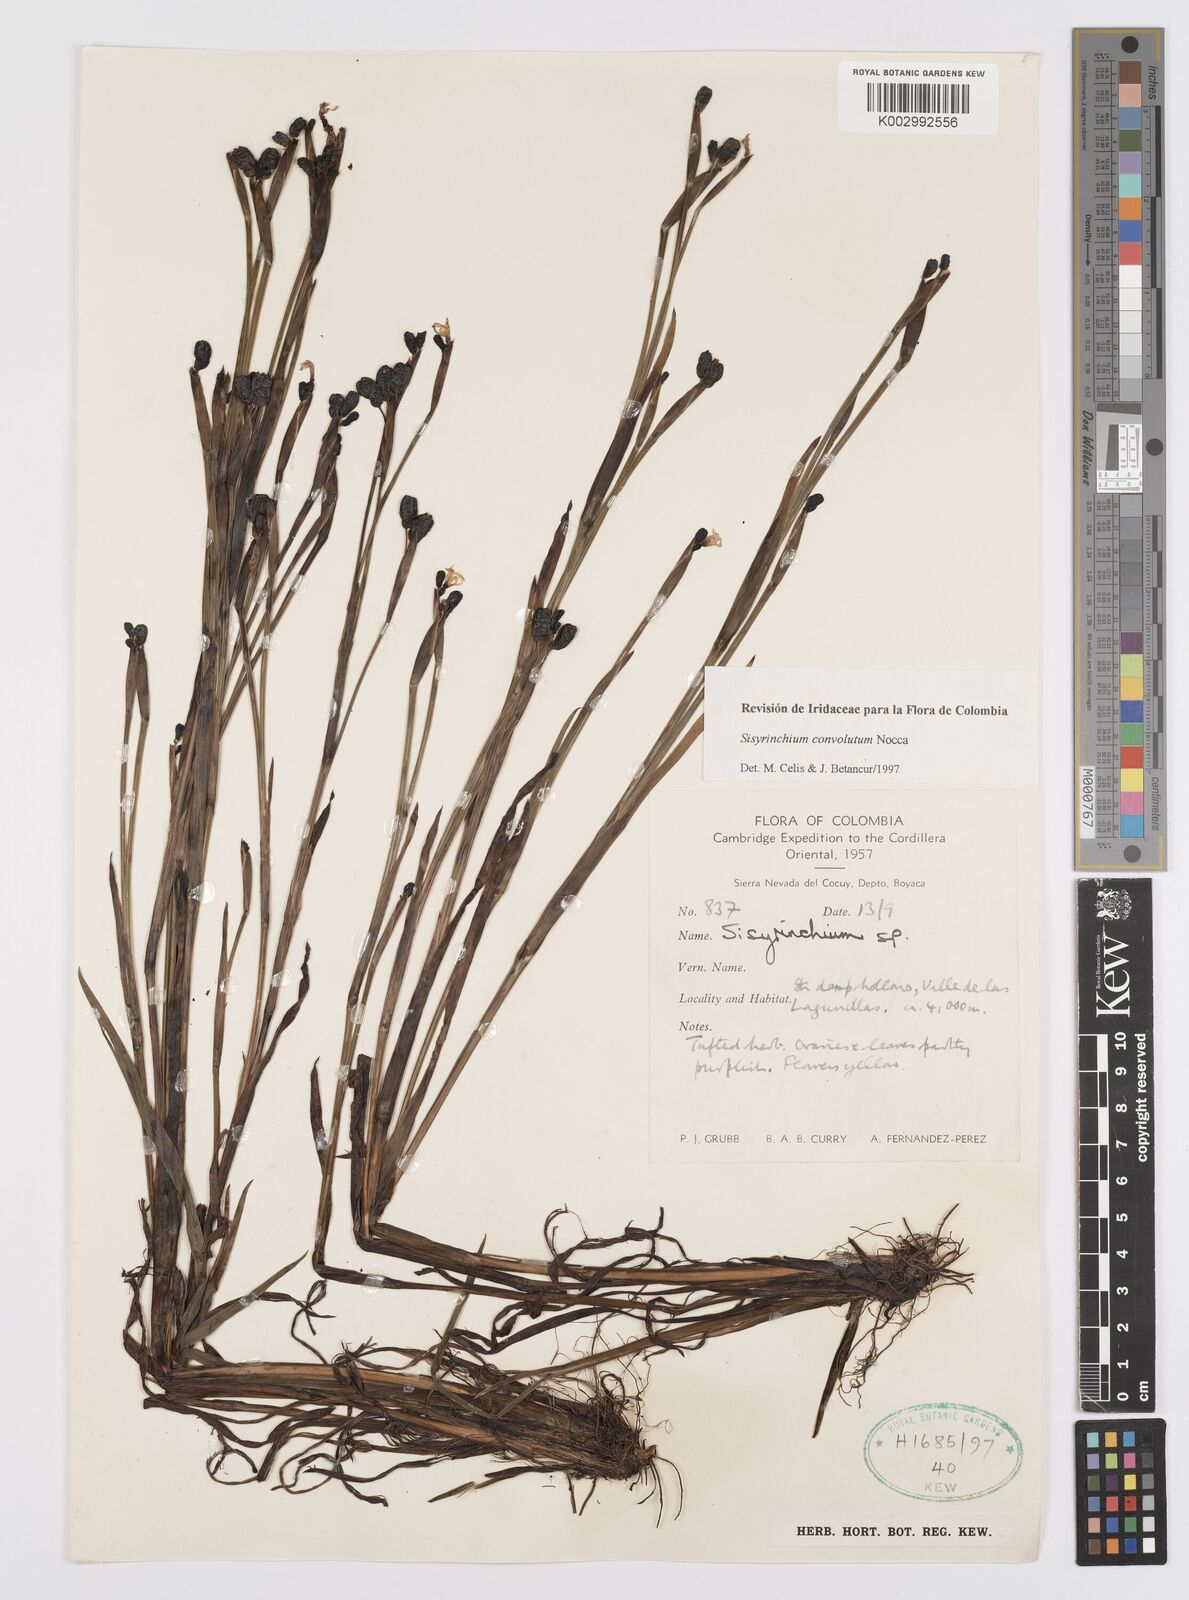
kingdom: Plantae
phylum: Tracheophyta
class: Liliopsida
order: Asparagales
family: Iridaceae
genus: Sisyrinchium
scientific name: Sisyrinchium convolutum
